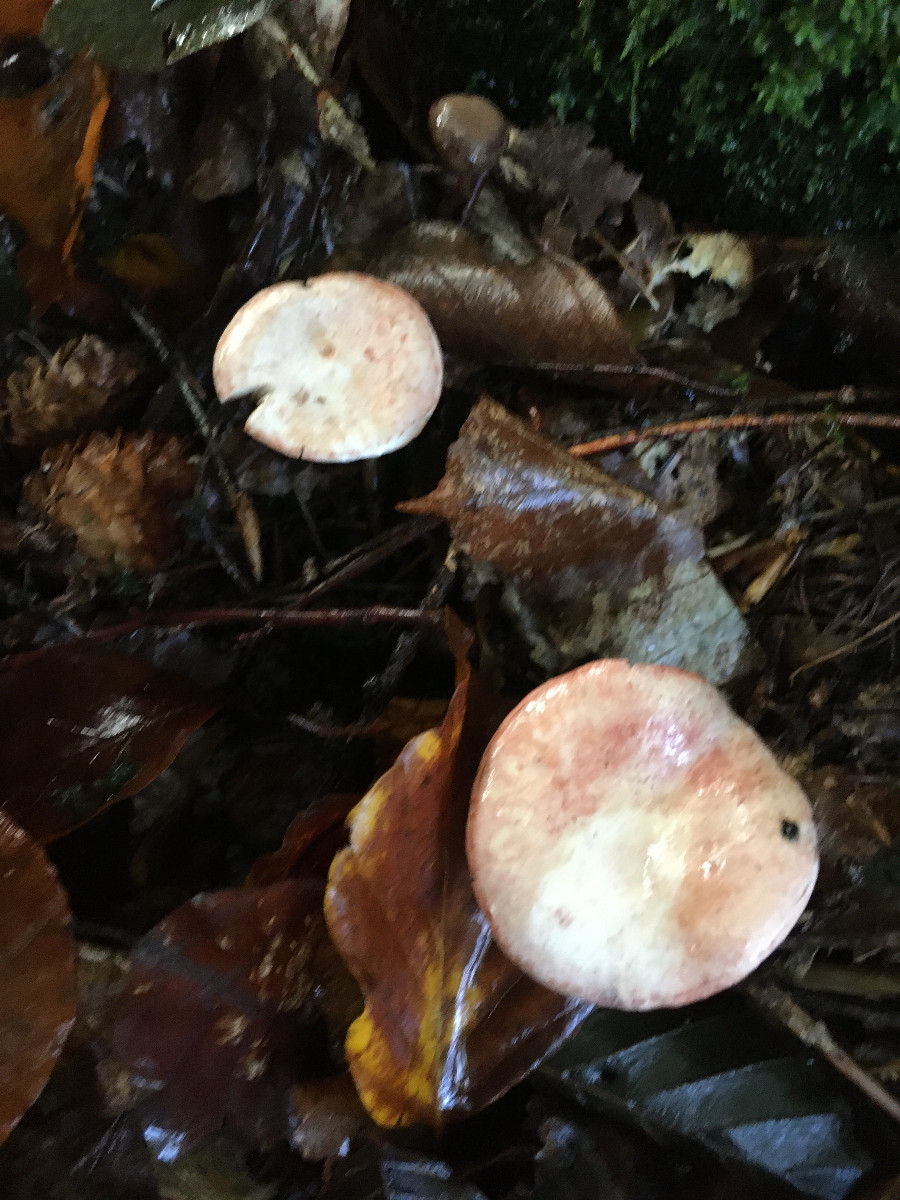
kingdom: Fungi
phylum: Basidiomycota
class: Agaricomycetes
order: Agaricales
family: Cortinariaceae
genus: Cortinarius
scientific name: Cortinarius bolaris
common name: cinnoberskællet slørhat
